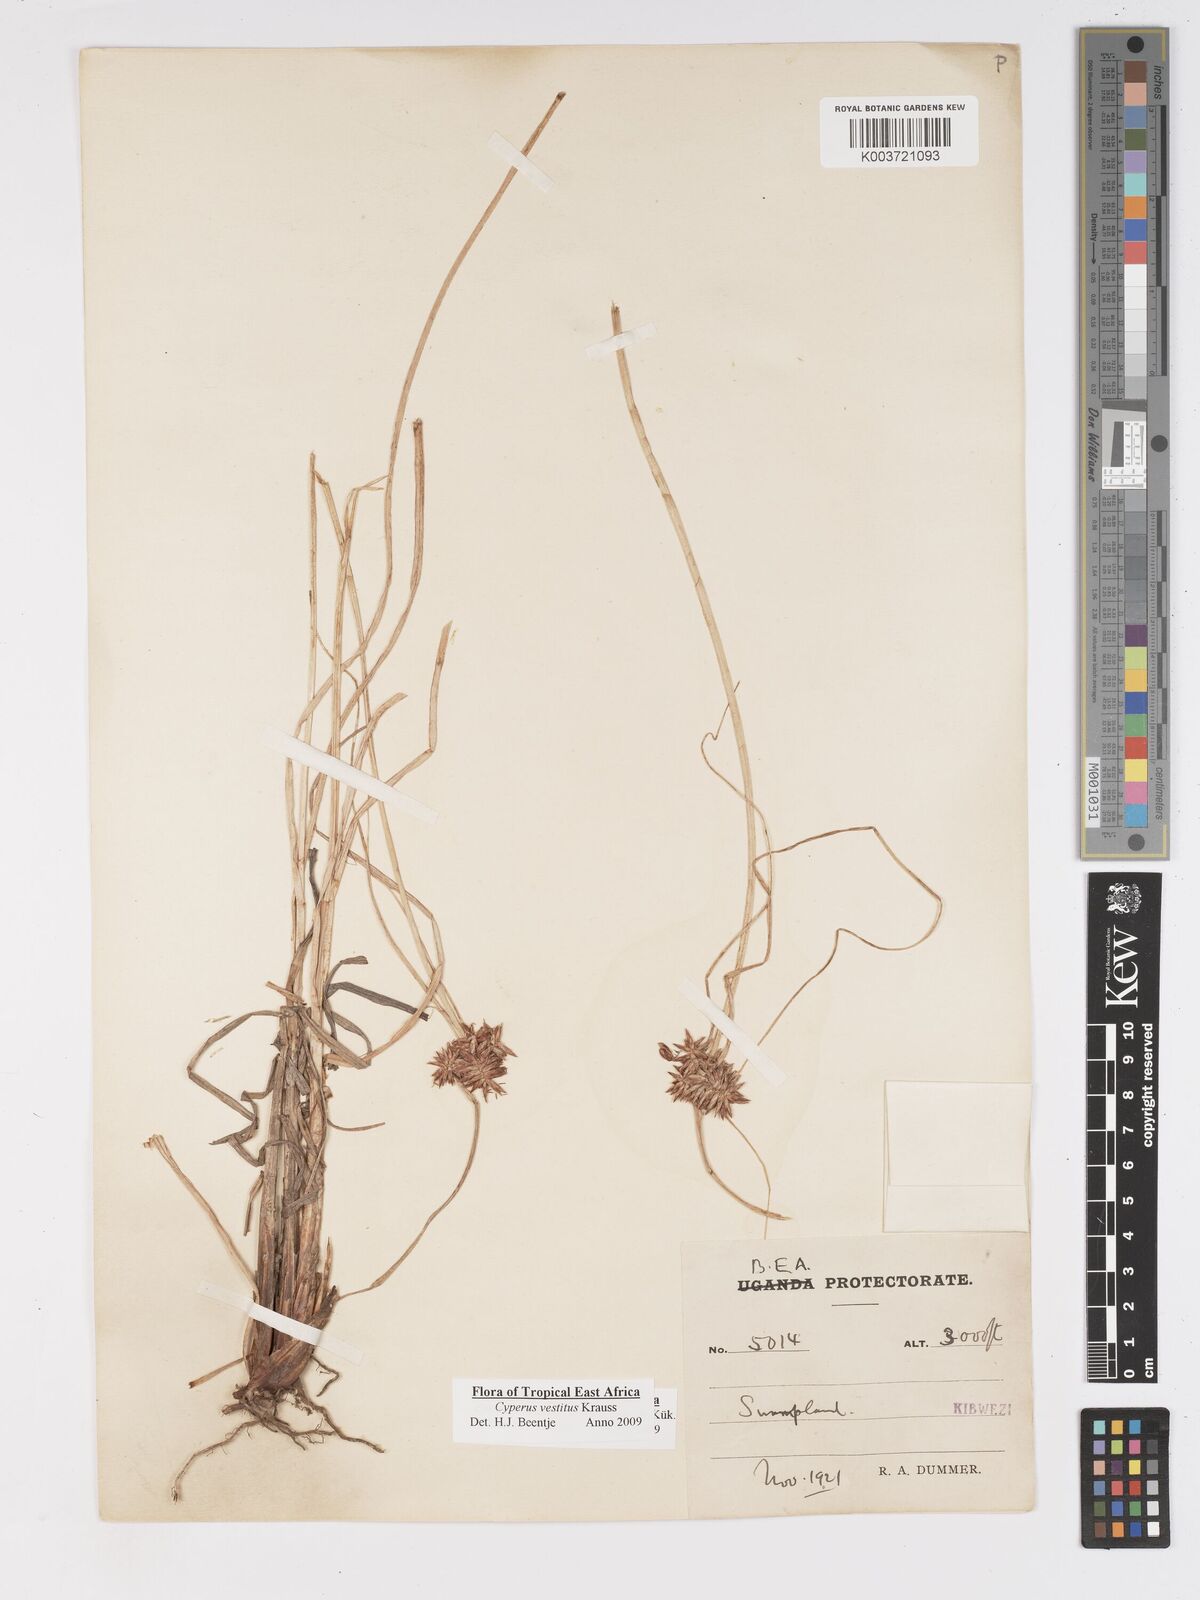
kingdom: Plantae
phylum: Tracheophyta
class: Liliopsida
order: Poales
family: Cyperaceae
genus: Cyperus
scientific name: Cyperus vestitus
